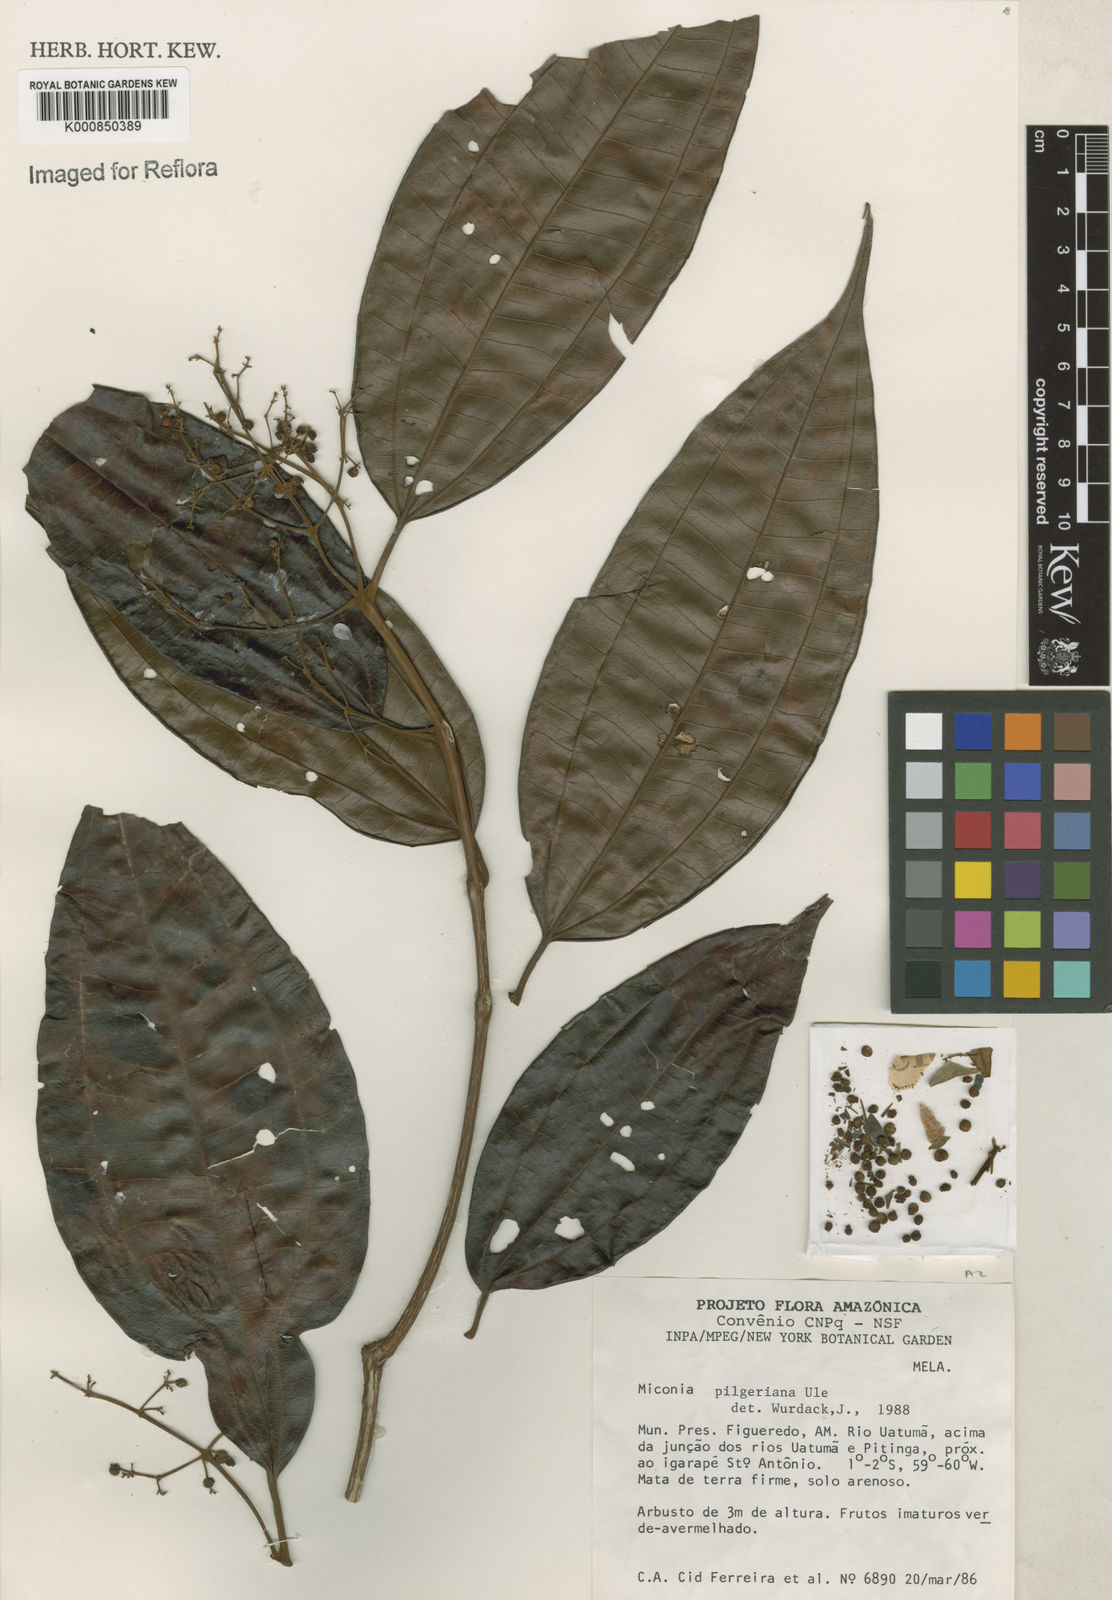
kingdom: Plantae
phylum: Tracheophyta
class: Magnoliopsida
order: Myrtales
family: Melastomataceae
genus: Miconia
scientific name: Miconia dolichorrhyncha
